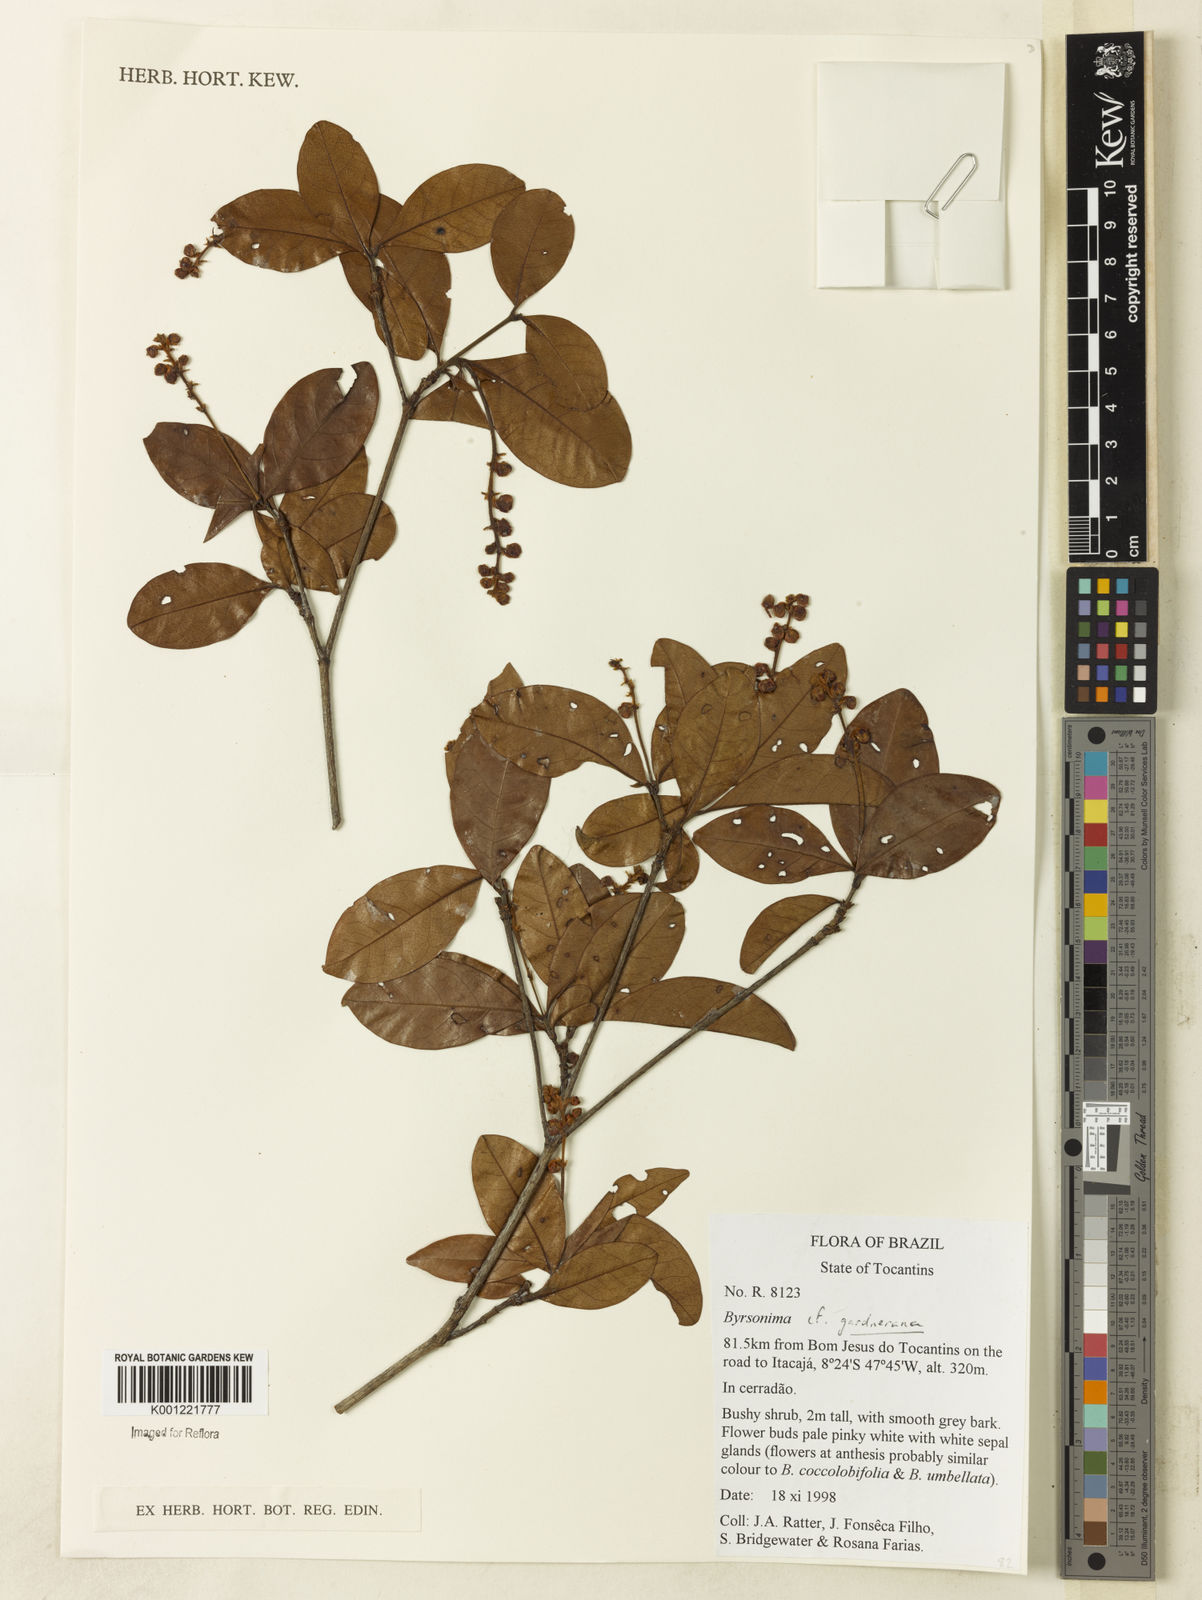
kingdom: Plantae
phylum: Tracheophyta
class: Magnoliopsida
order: Malpighiales
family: Malpighiaceae
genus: Byrsonima
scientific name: Byrsonima gardneriana
